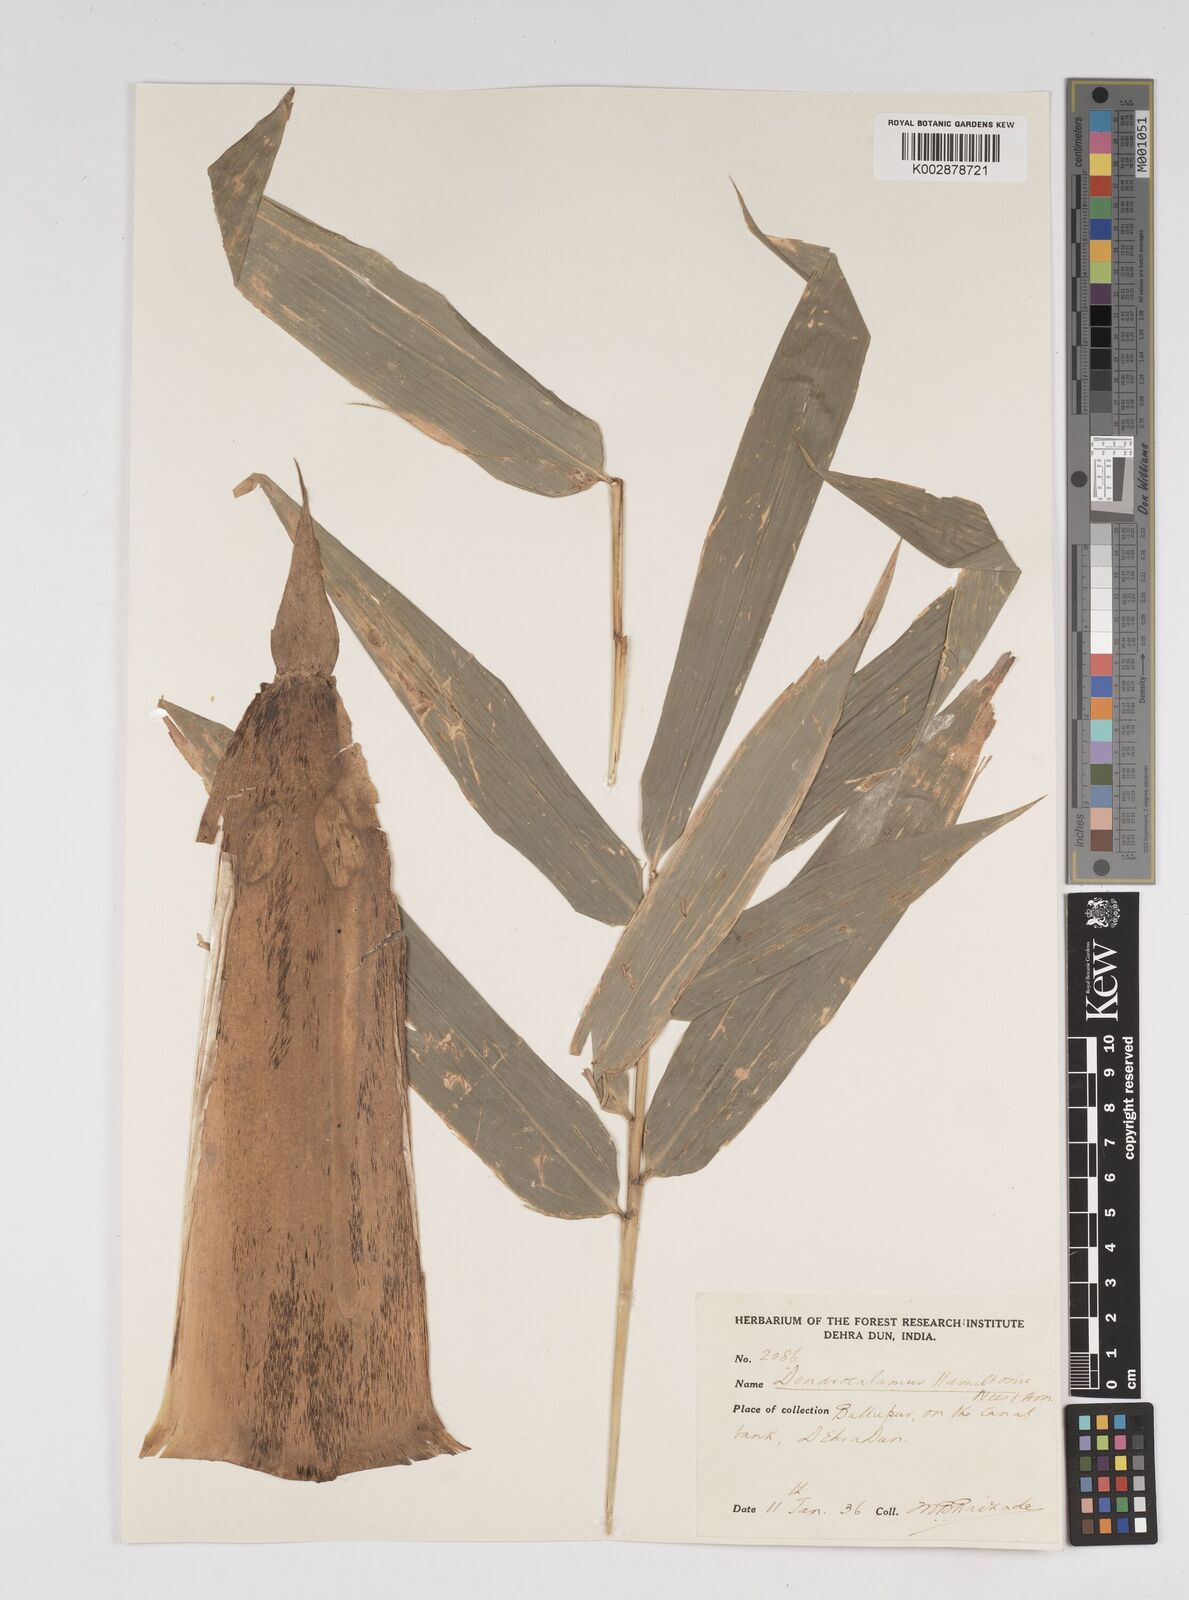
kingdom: Plantae
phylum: Tracheophyta
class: Liliopsida
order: Poales
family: Poaceae
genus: Dendrocalamus
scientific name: Dendrocalamus hamiltonii
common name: Tama bamboo
